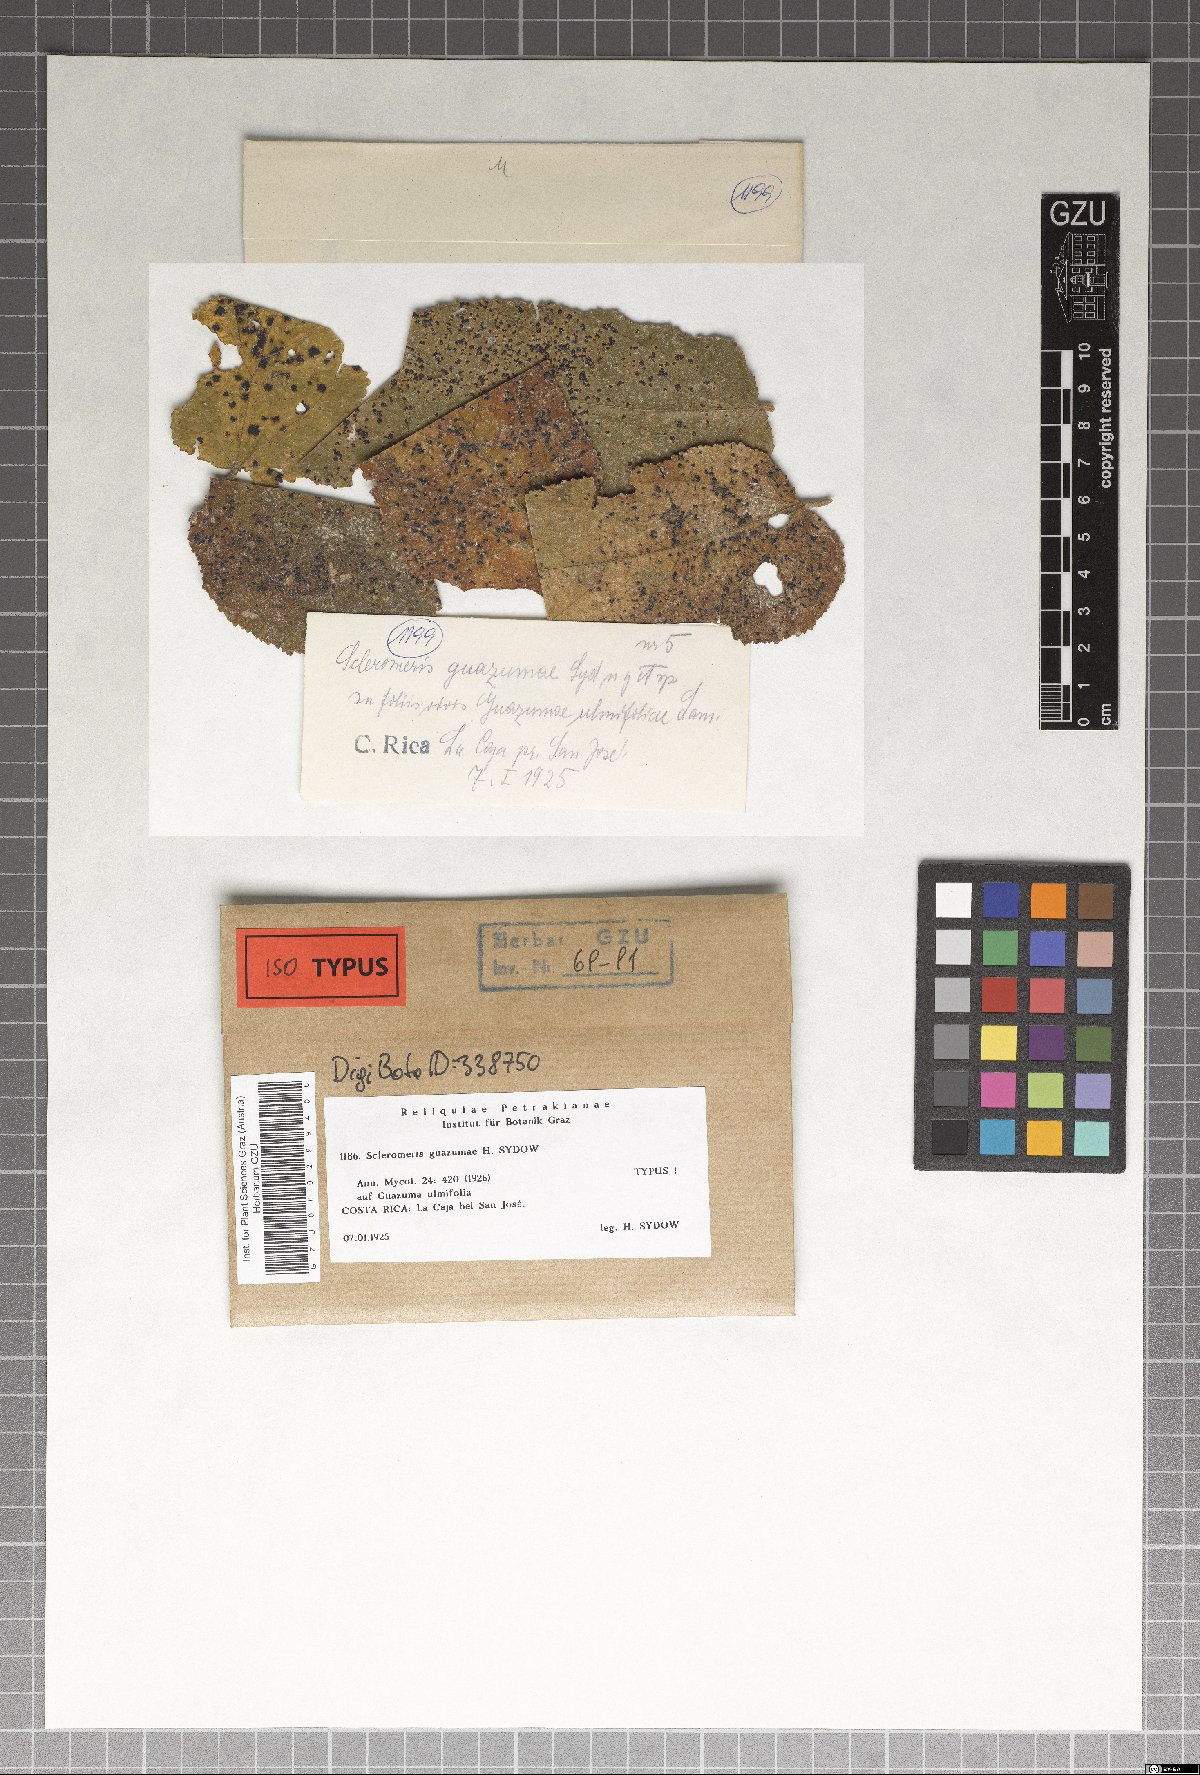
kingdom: Fungi
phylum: Ascomycota
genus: Scleromeris
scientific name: Scleromeris guazumae
